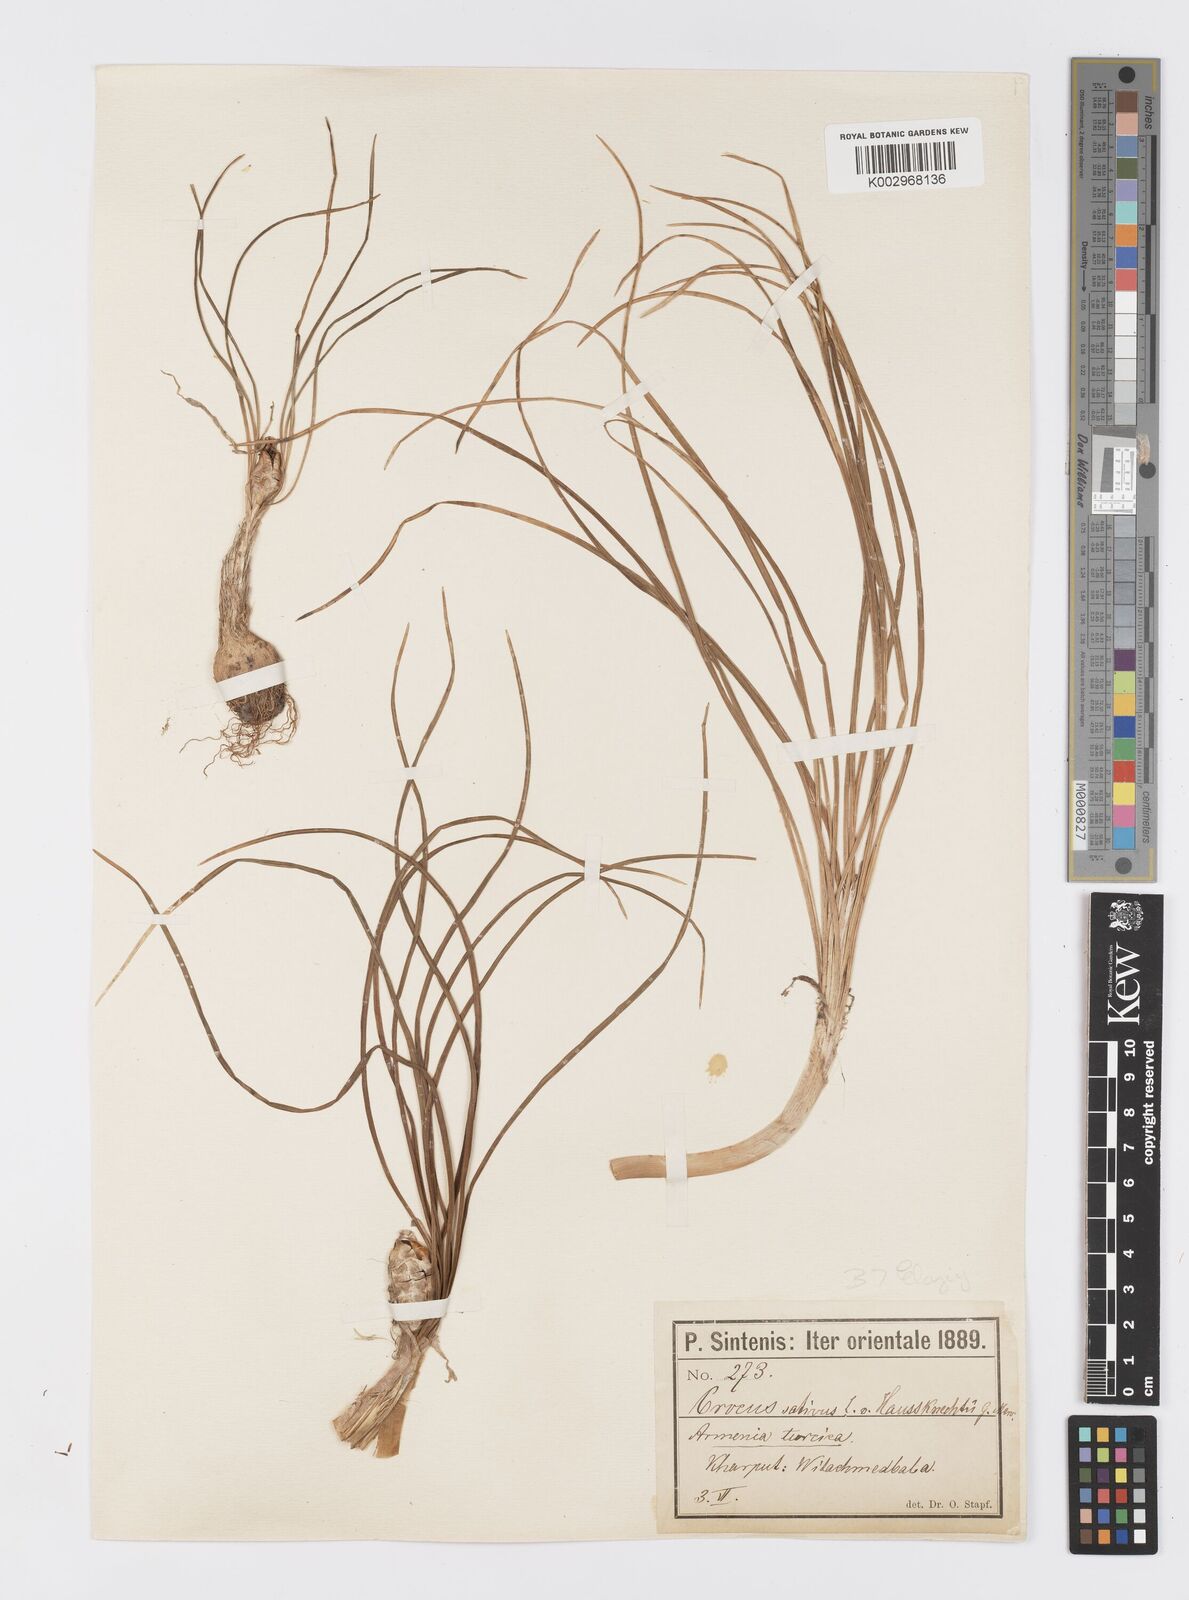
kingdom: Plantae
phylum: Tracheophyta
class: Liliopsida
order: Asparagales
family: Iridaceae
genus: Crocus
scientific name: Crocus turcicus
